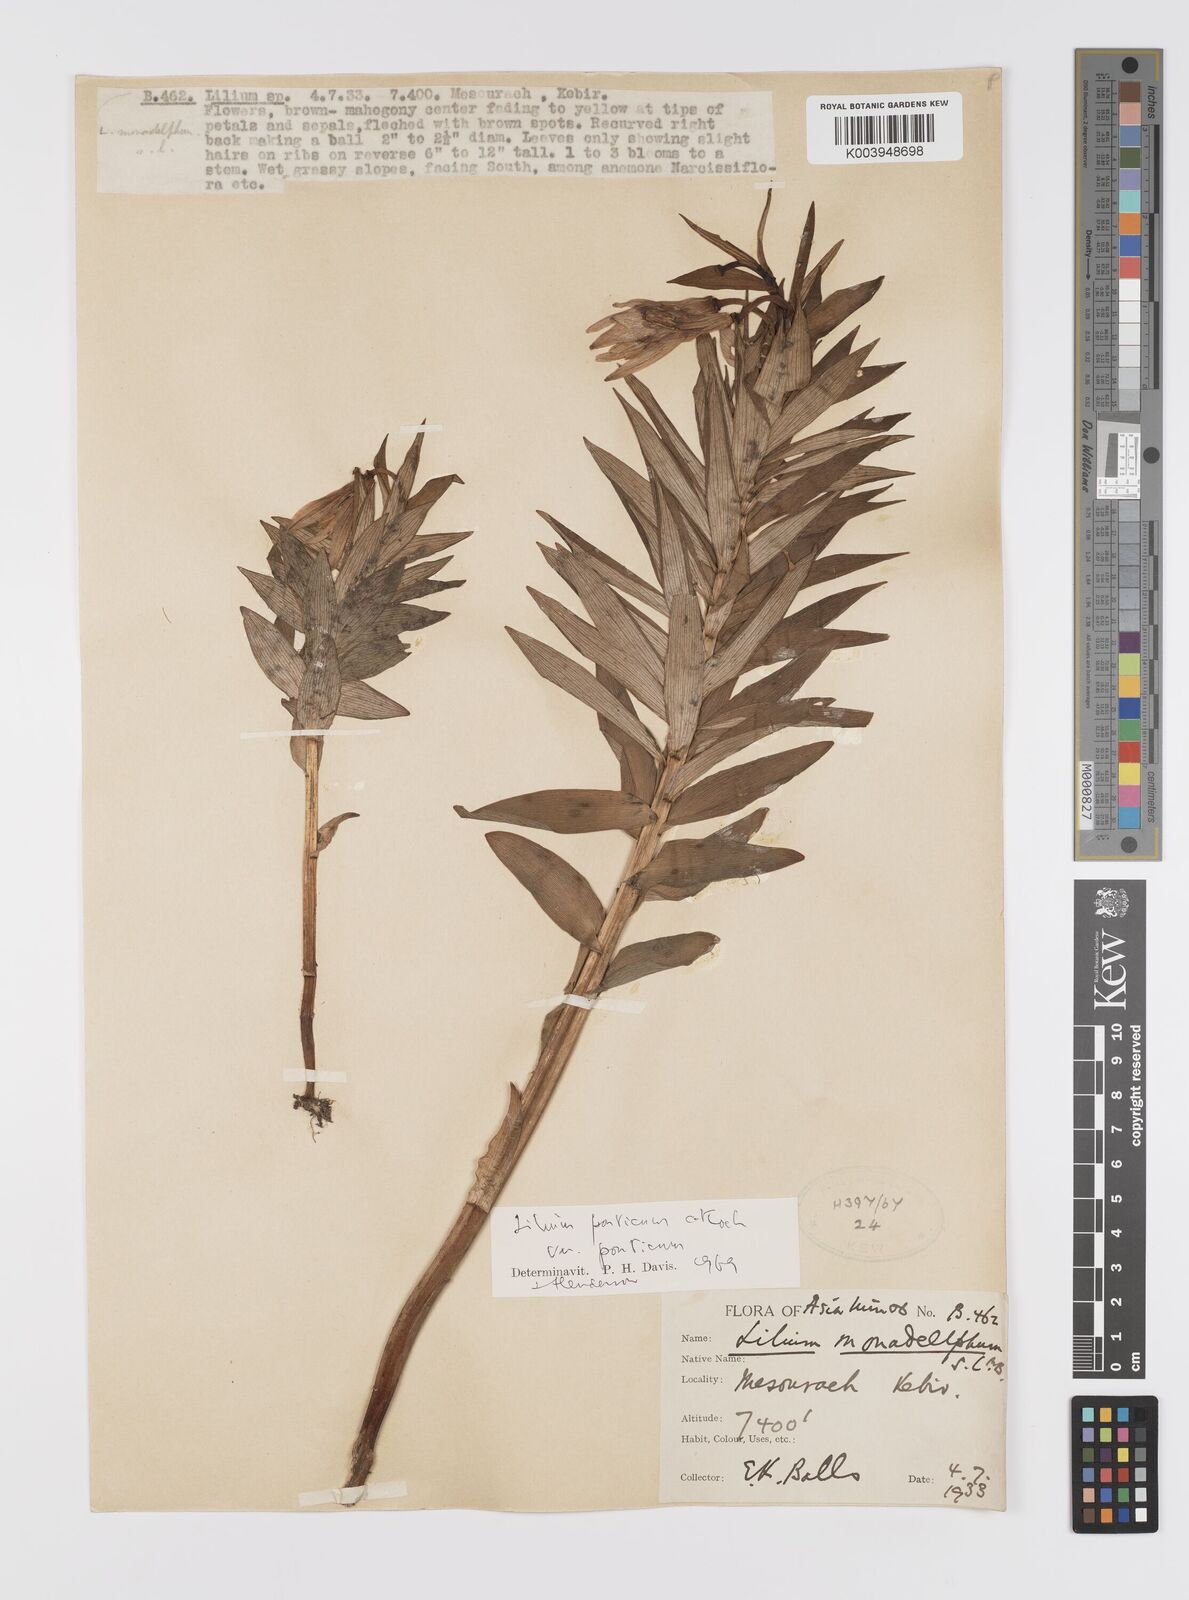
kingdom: Plantae
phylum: Tracheophyta
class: Liliopsida
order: Liliales
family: Liliaceae
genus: Lilium
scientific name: Lilium ponticum
